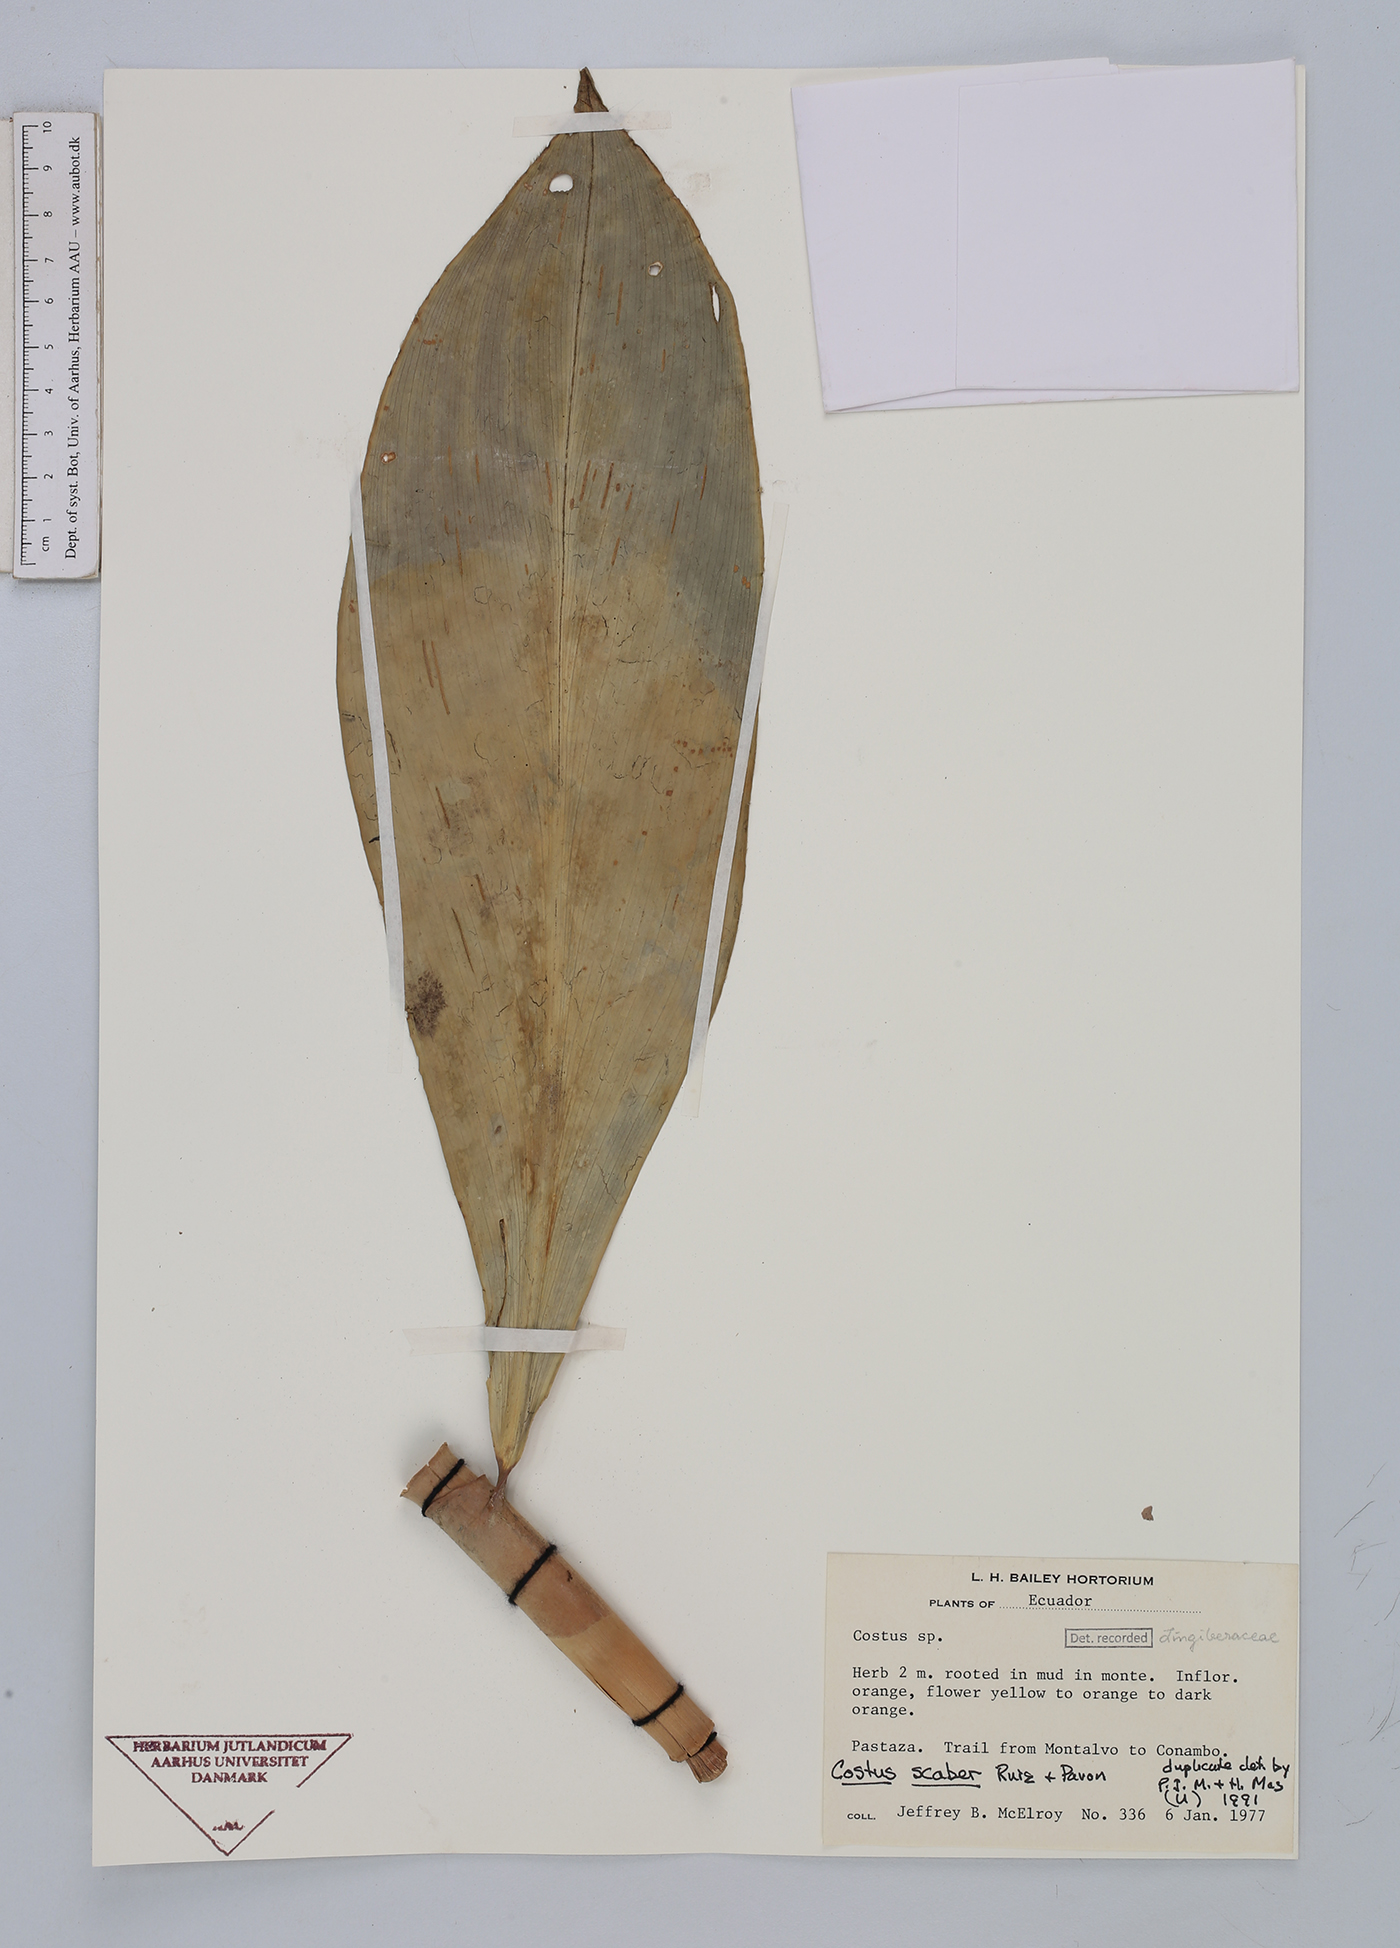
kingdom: Plantae
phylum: Tracheophyta
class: Liliopsida
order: Zingiberales
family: Costaceae
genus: Costus
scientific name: Costus scaber
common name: Spiral head ginger
